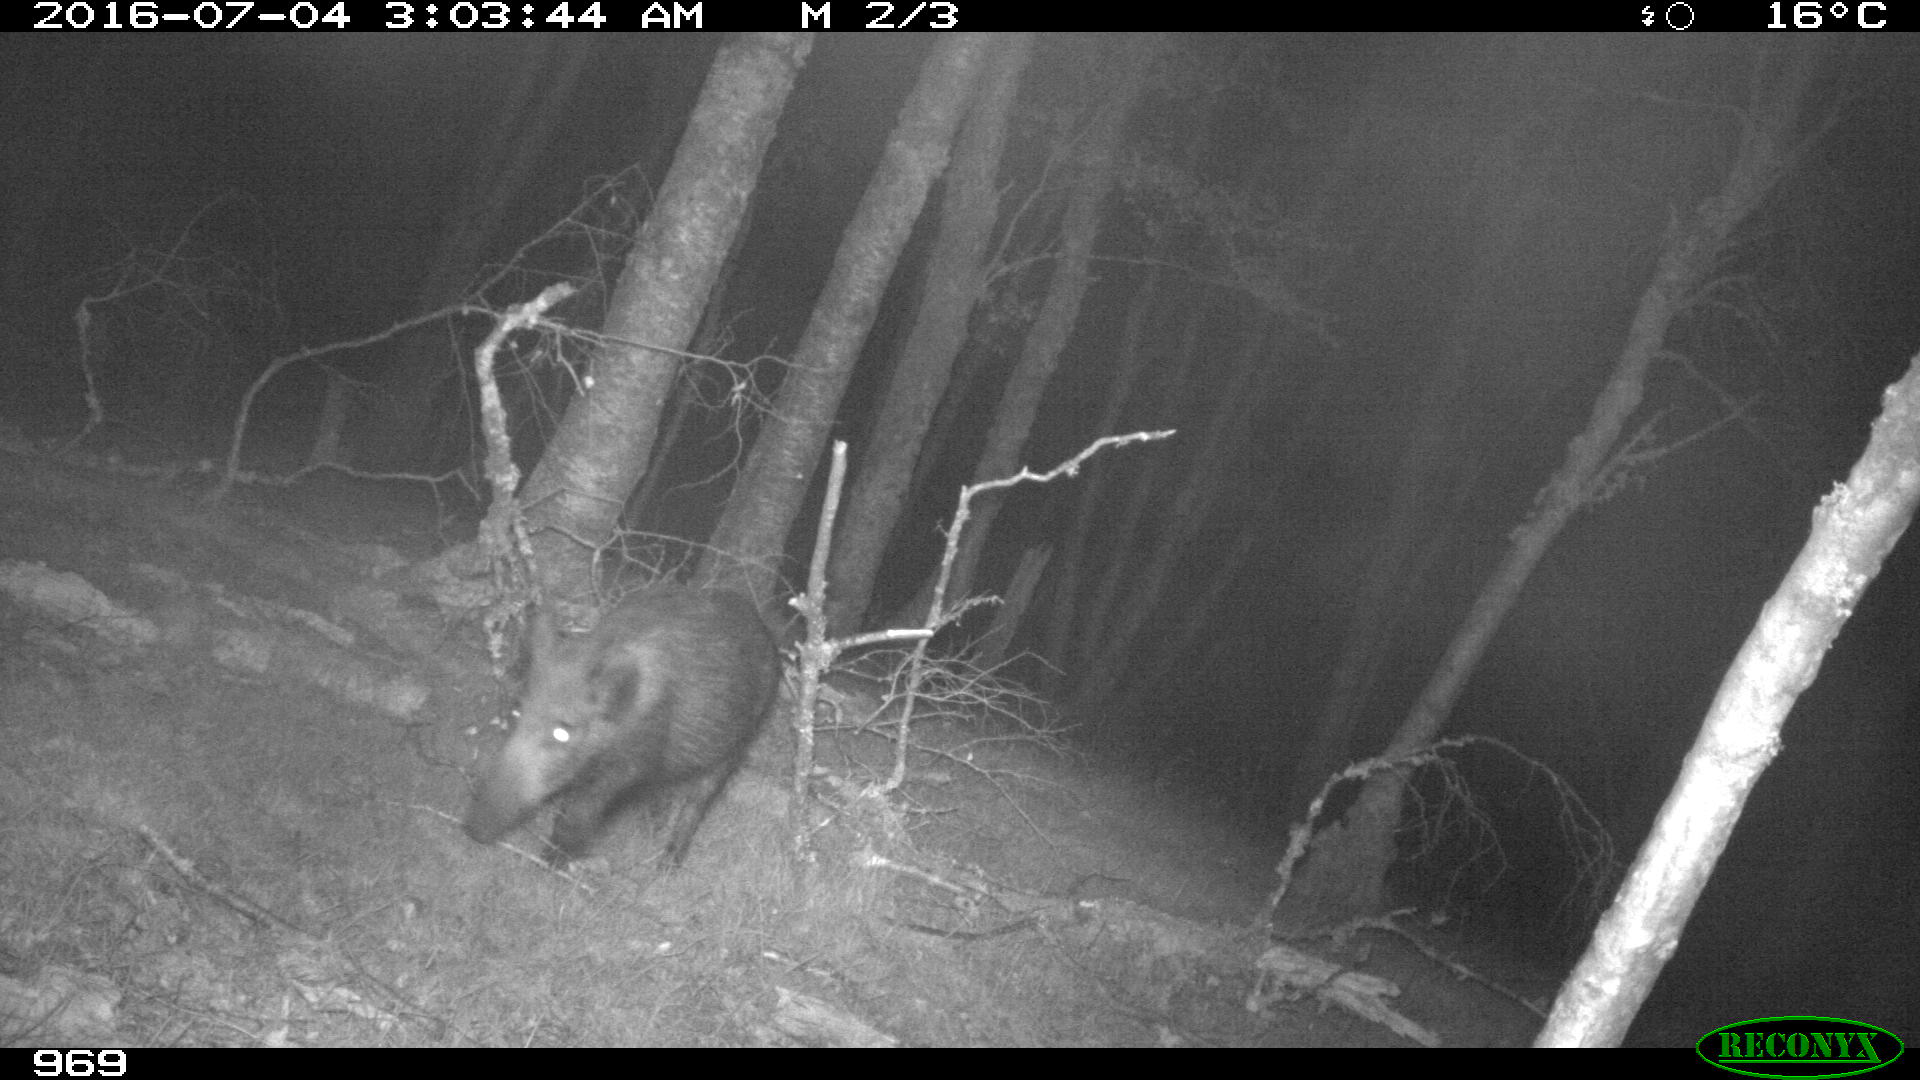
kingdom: Animalia
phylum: Chordata
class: Mammalia
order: Artiodactyla
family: Suidae
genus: Sus
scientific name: Sus scrofa
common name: Wild boar
